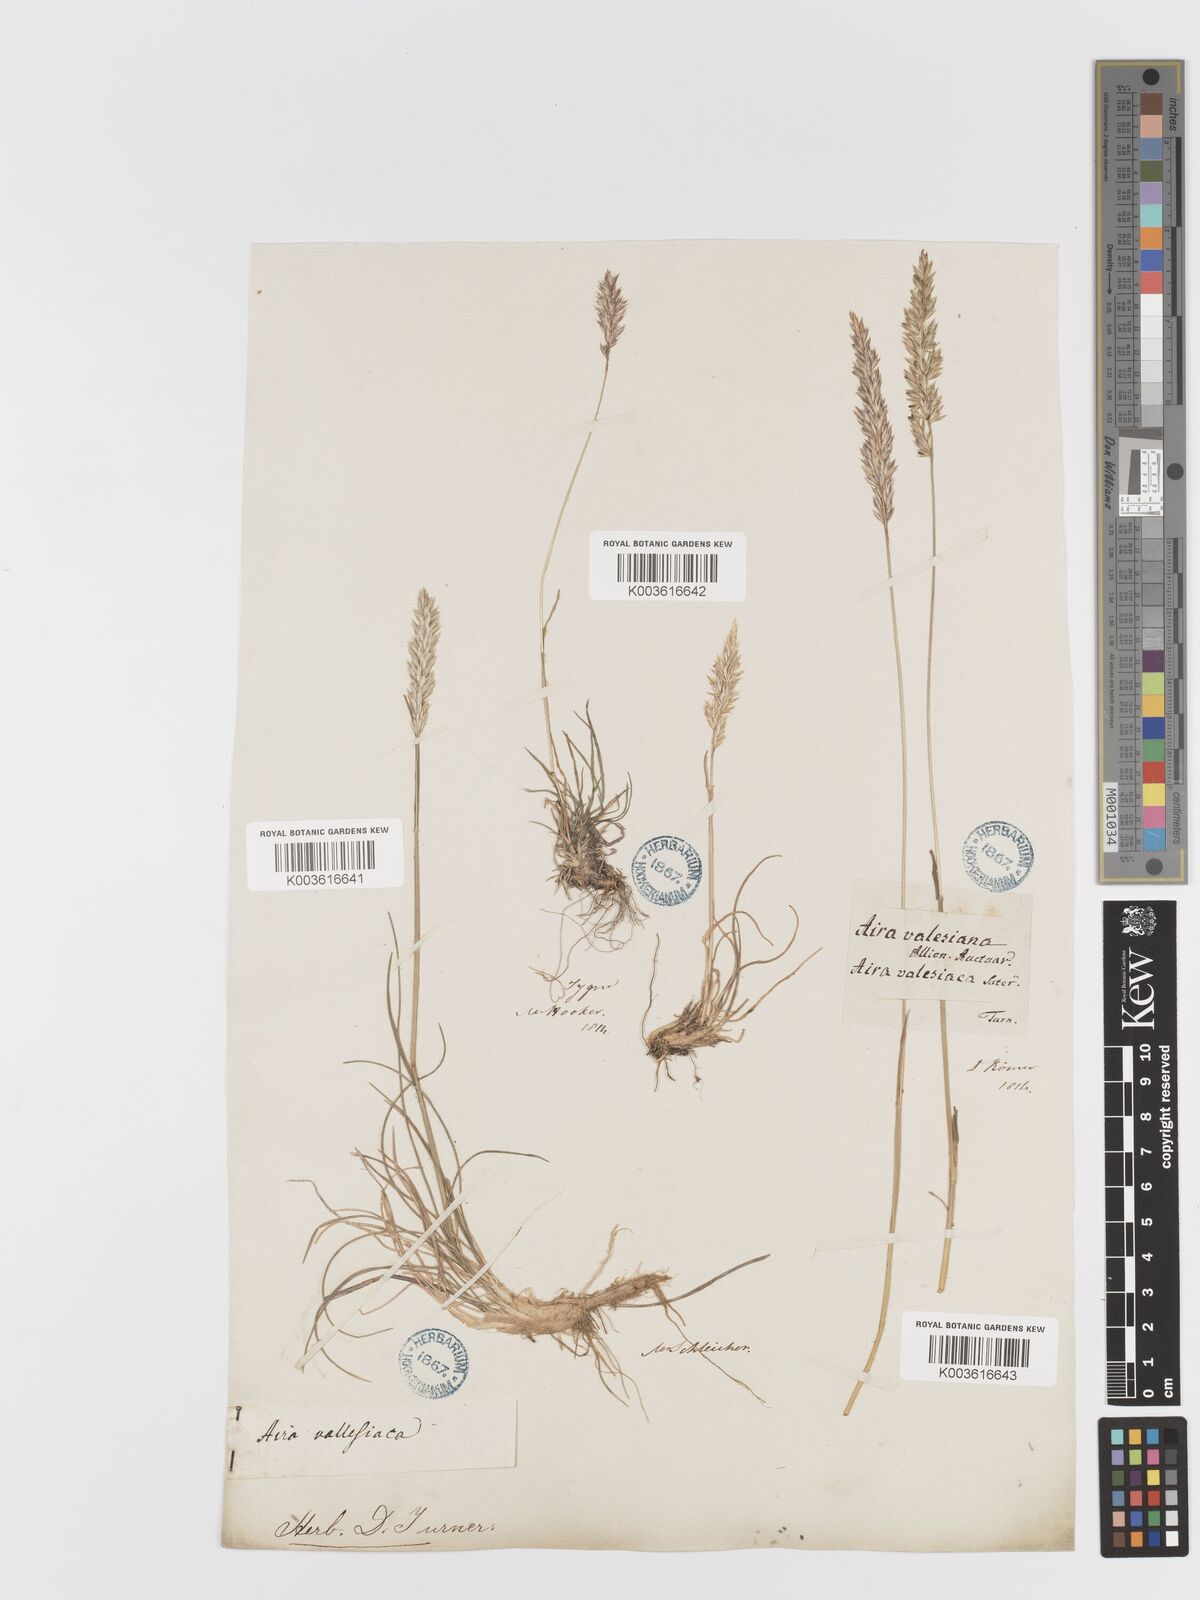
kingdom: Plantae
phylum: Tracheophyta
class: Liliopsida
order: Poales
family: Poaceae
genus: Koeleria
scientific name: Koeleria vallesiana
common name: Somerset hair-grass
